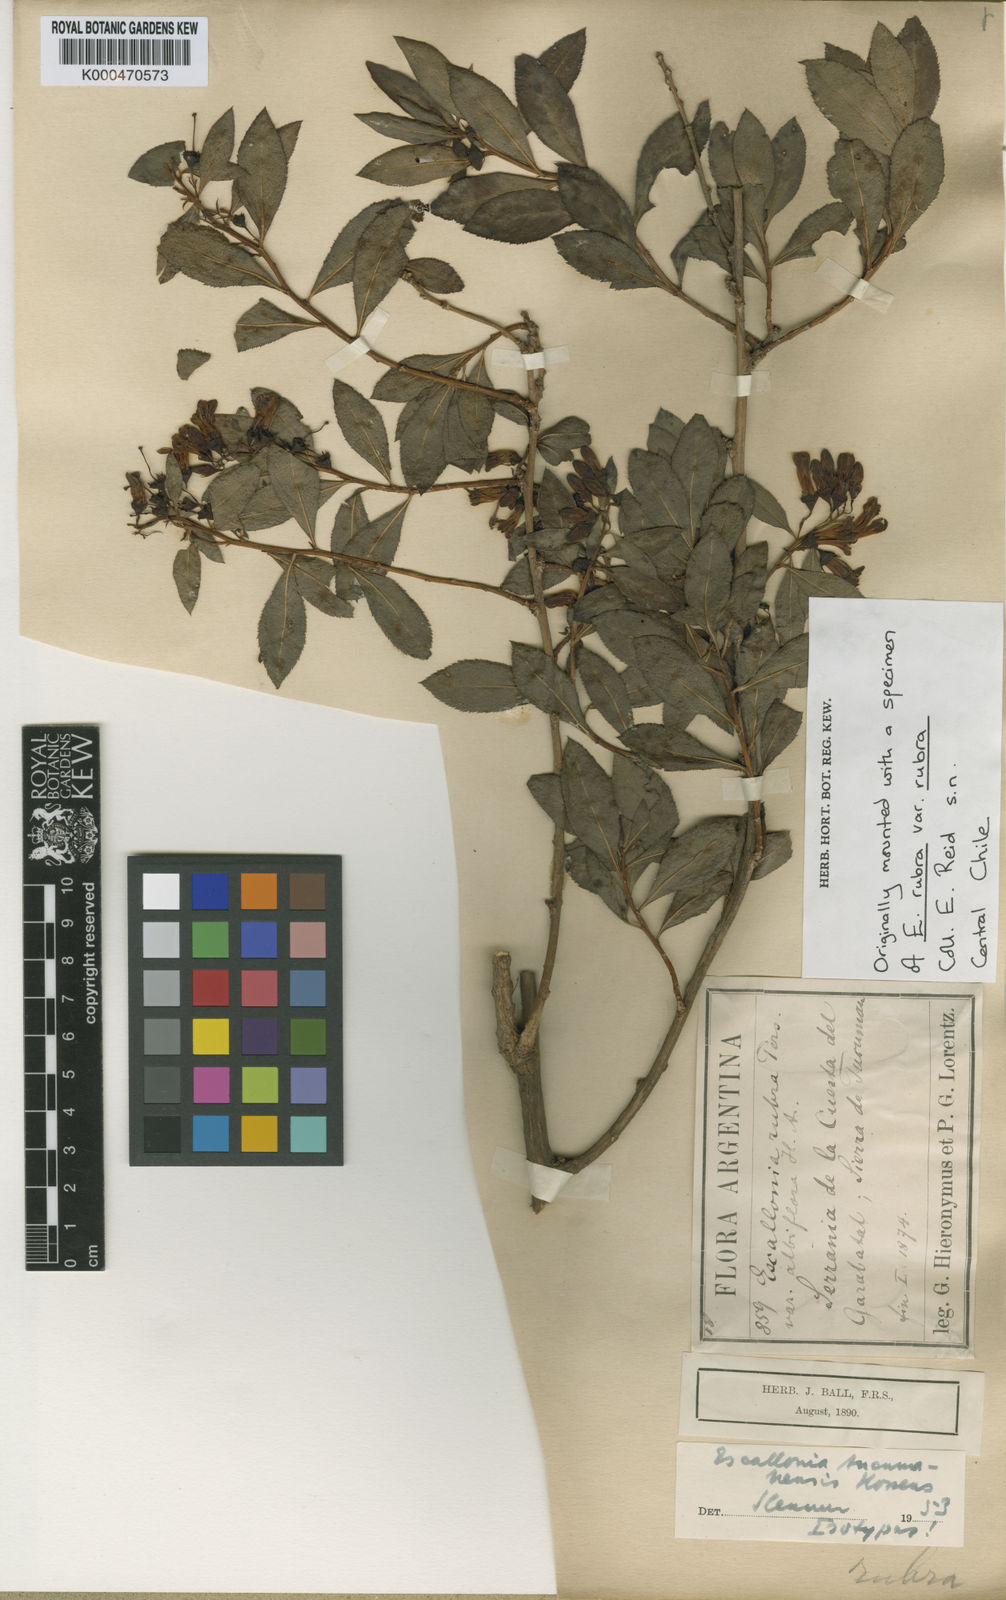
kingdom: Plantae
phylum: Tracheophyta
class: Magnoliopsida
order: Escalloniales
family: Escalloniaceae
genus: Escallonia
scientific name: Escallonia tucumanensis
